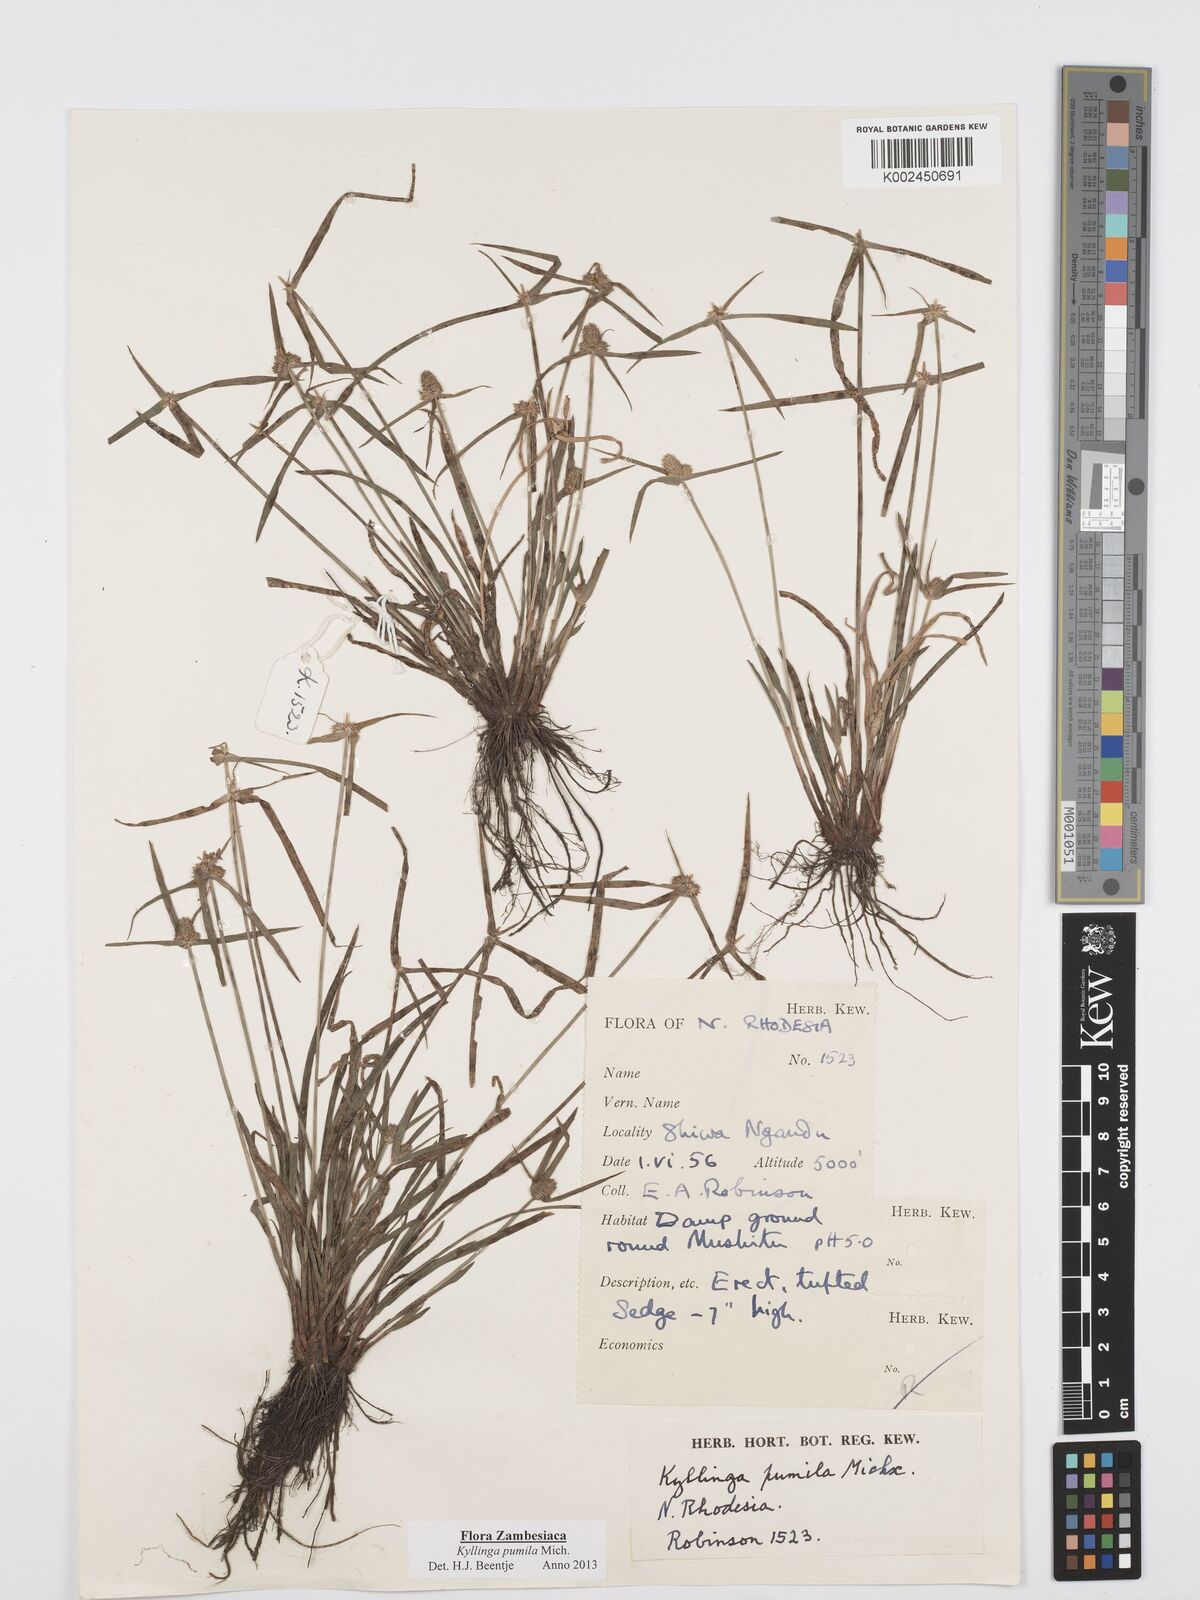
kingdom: Plantae
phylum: Tracheophyta
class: Liliopsida
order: Poales
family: Cyperaceae
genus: Cyperus
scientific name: Cyperus pumilus
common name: Low flatsedge
